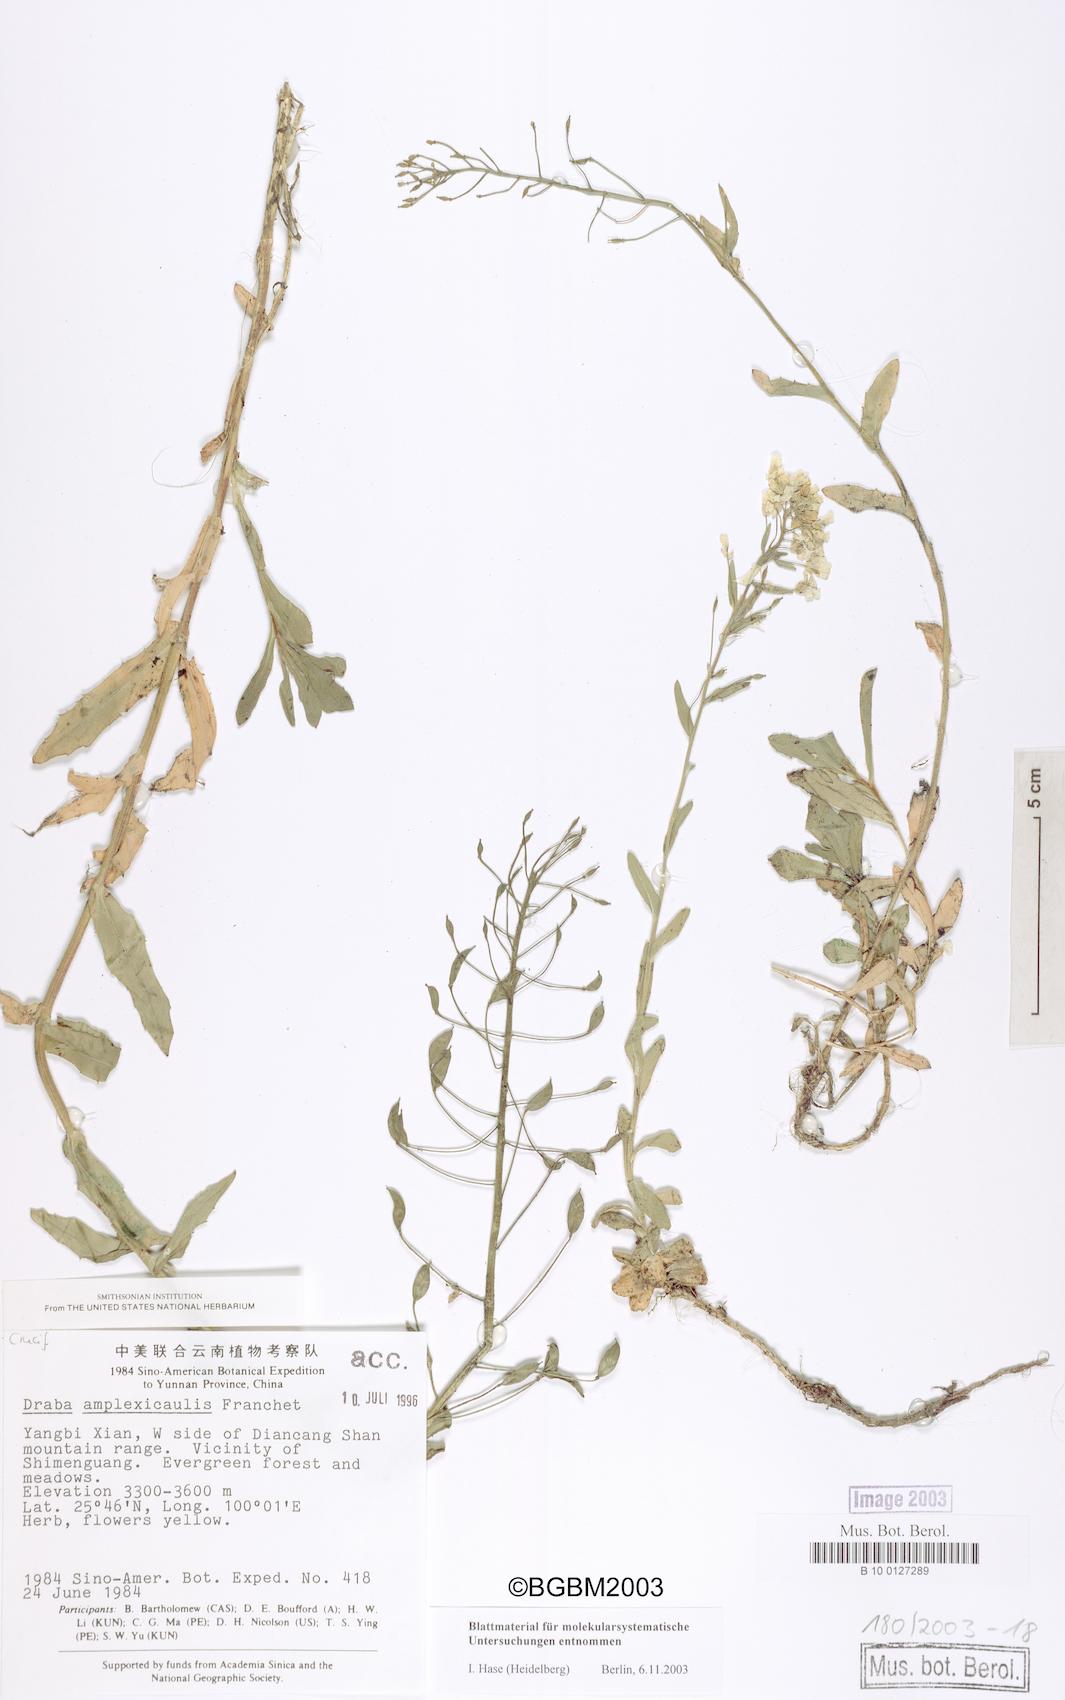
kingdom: Plantae
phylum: Tracheophyta
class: Magnoliopsida
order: Brassicales
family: Brassicaceae
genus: Draba
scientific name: Draba surculosa
